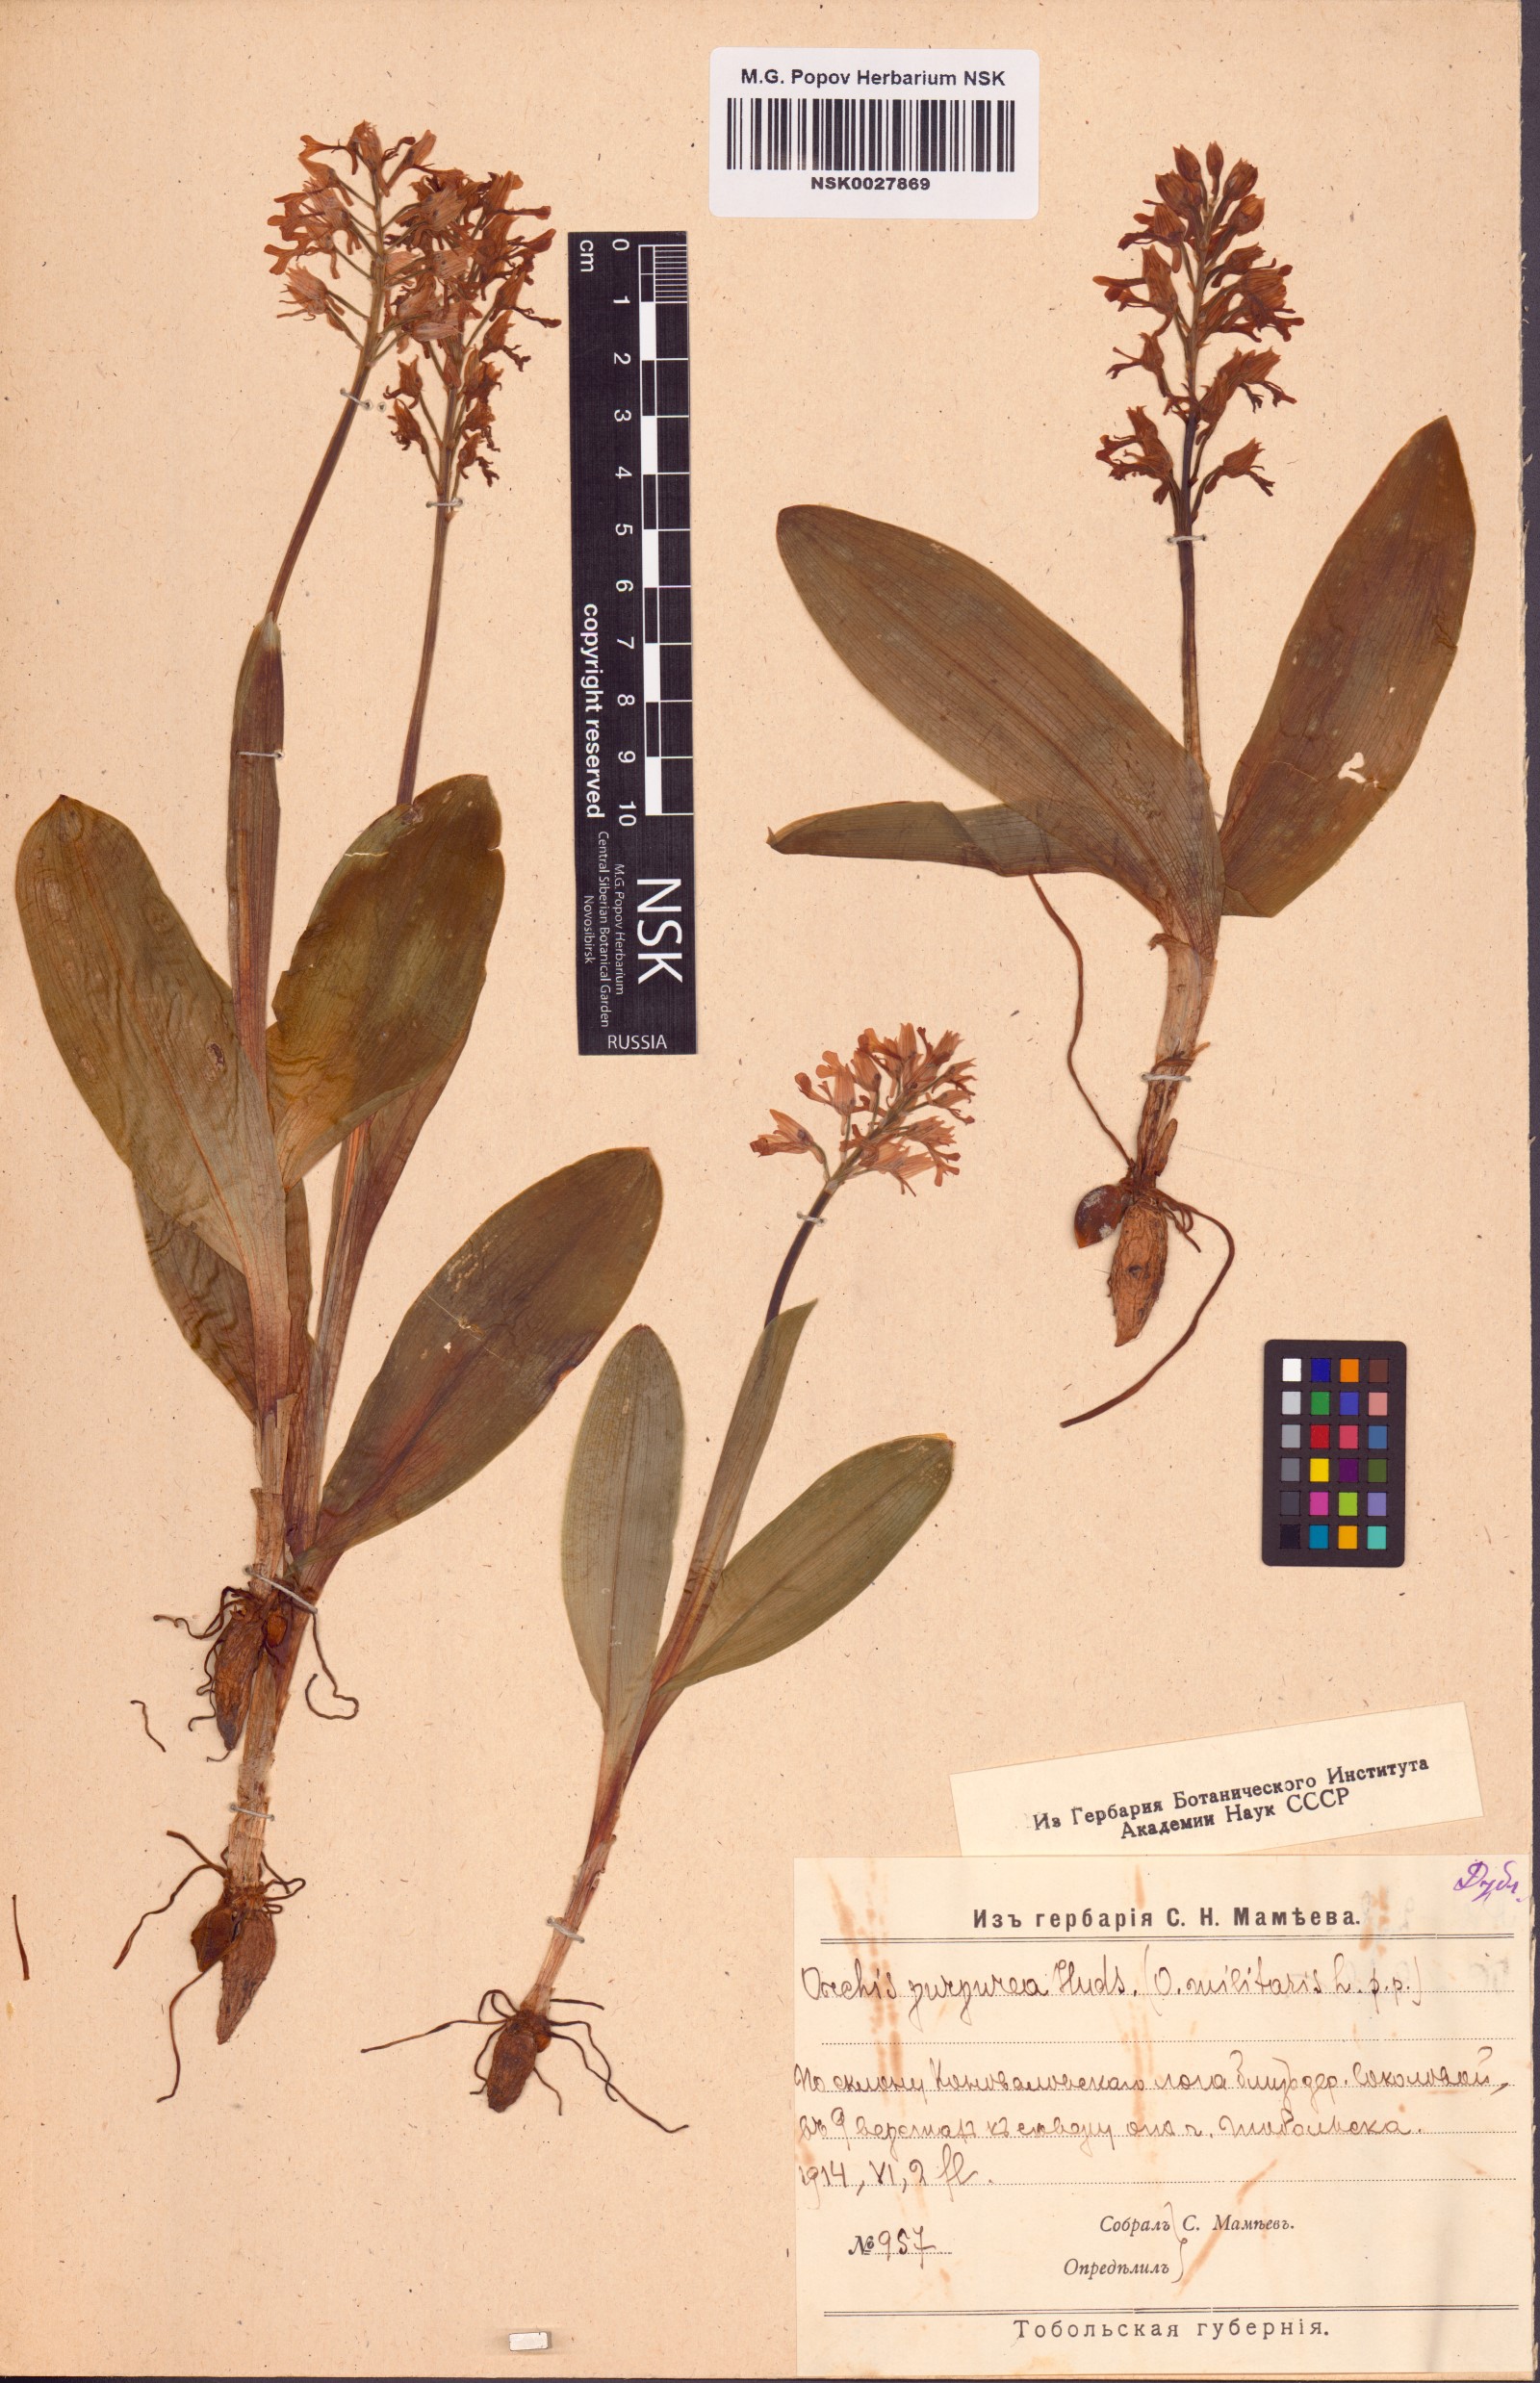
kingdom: Plantae
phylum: Tracheophyta
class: Liliopsida
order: Asparagales
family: Orchidaceae
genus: Orchis
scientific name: Orchis militaris
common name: Military orchid
